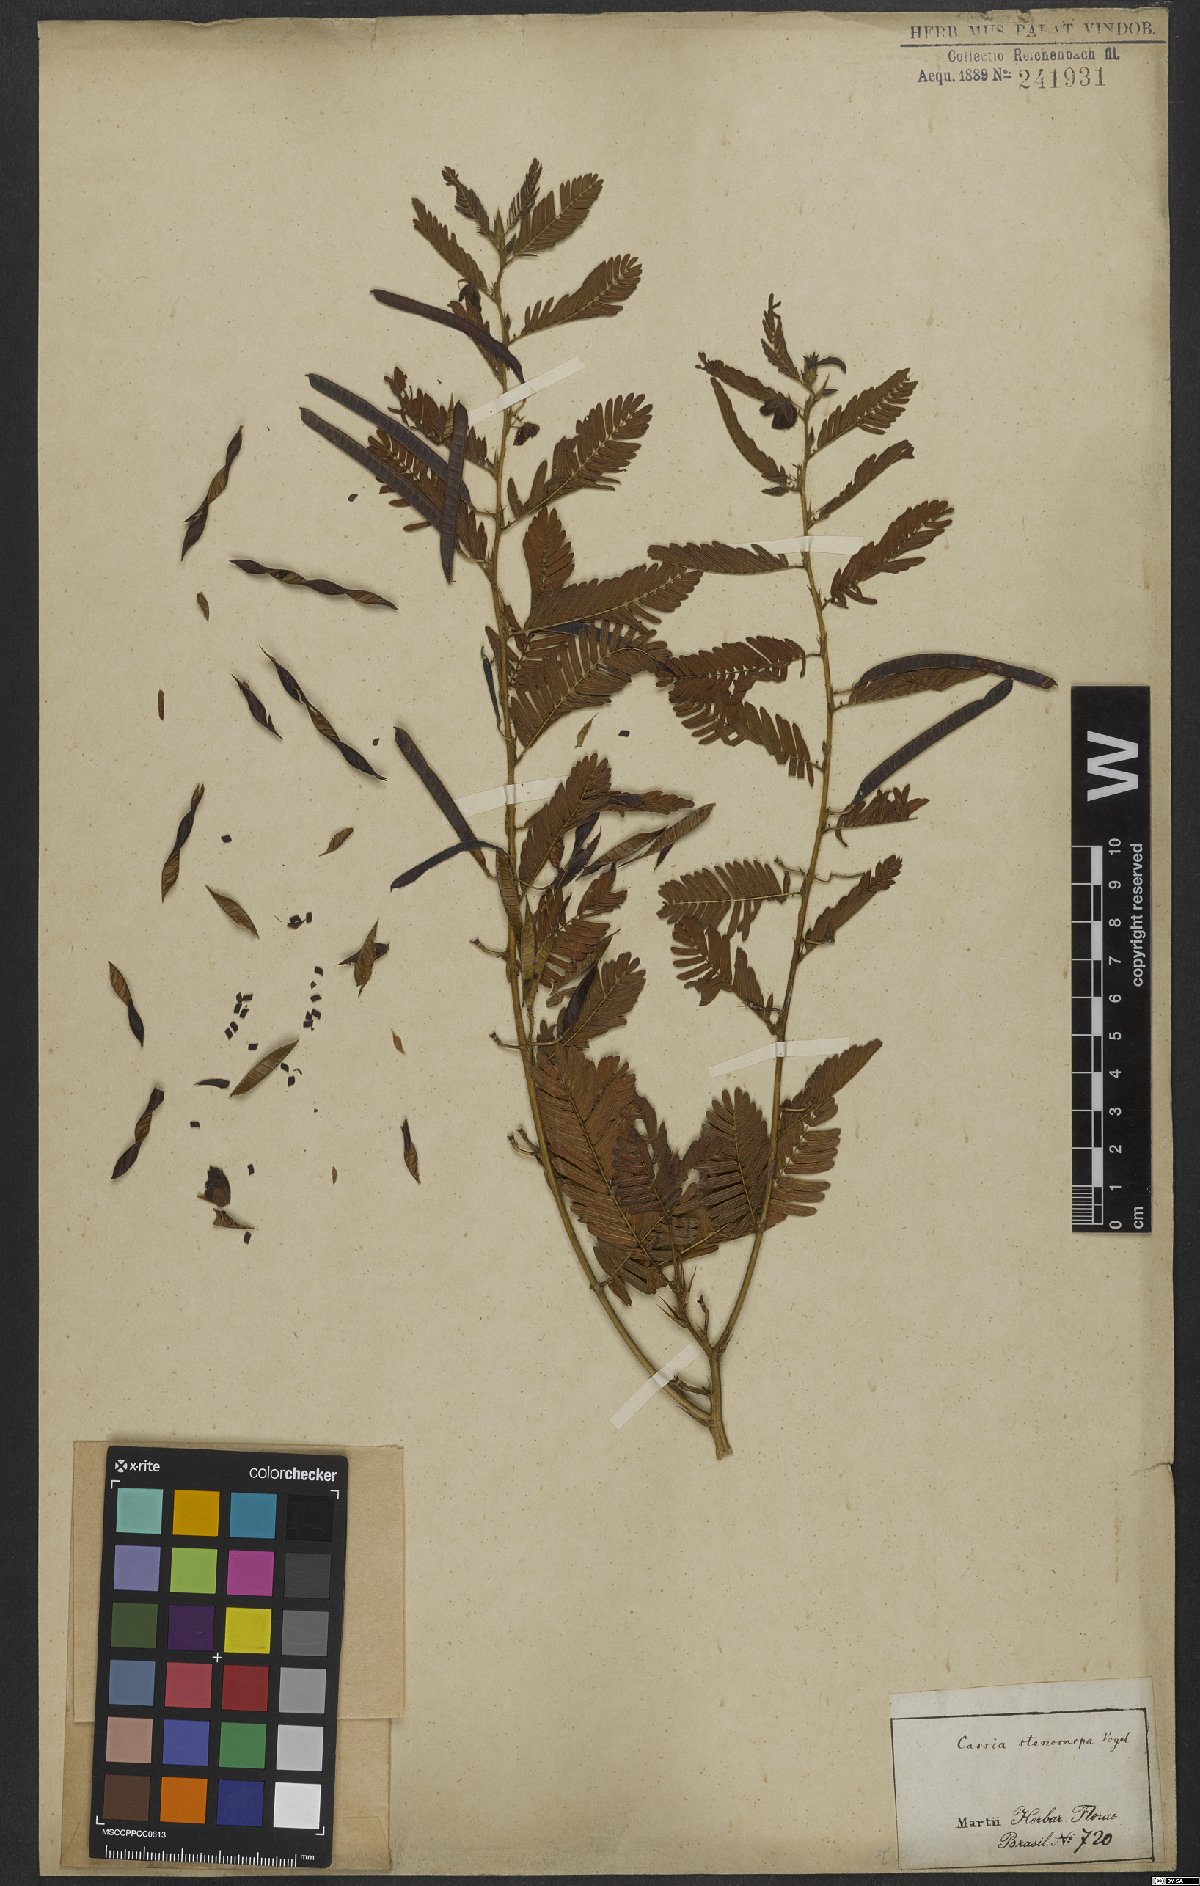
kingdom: Plantae
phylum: Tracheophyta
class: Magnoliopsida
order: Fabales
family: Fabaceae
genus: Chamaecrista
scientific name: Chamaecrista nictitans
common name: Sensitive cassia
